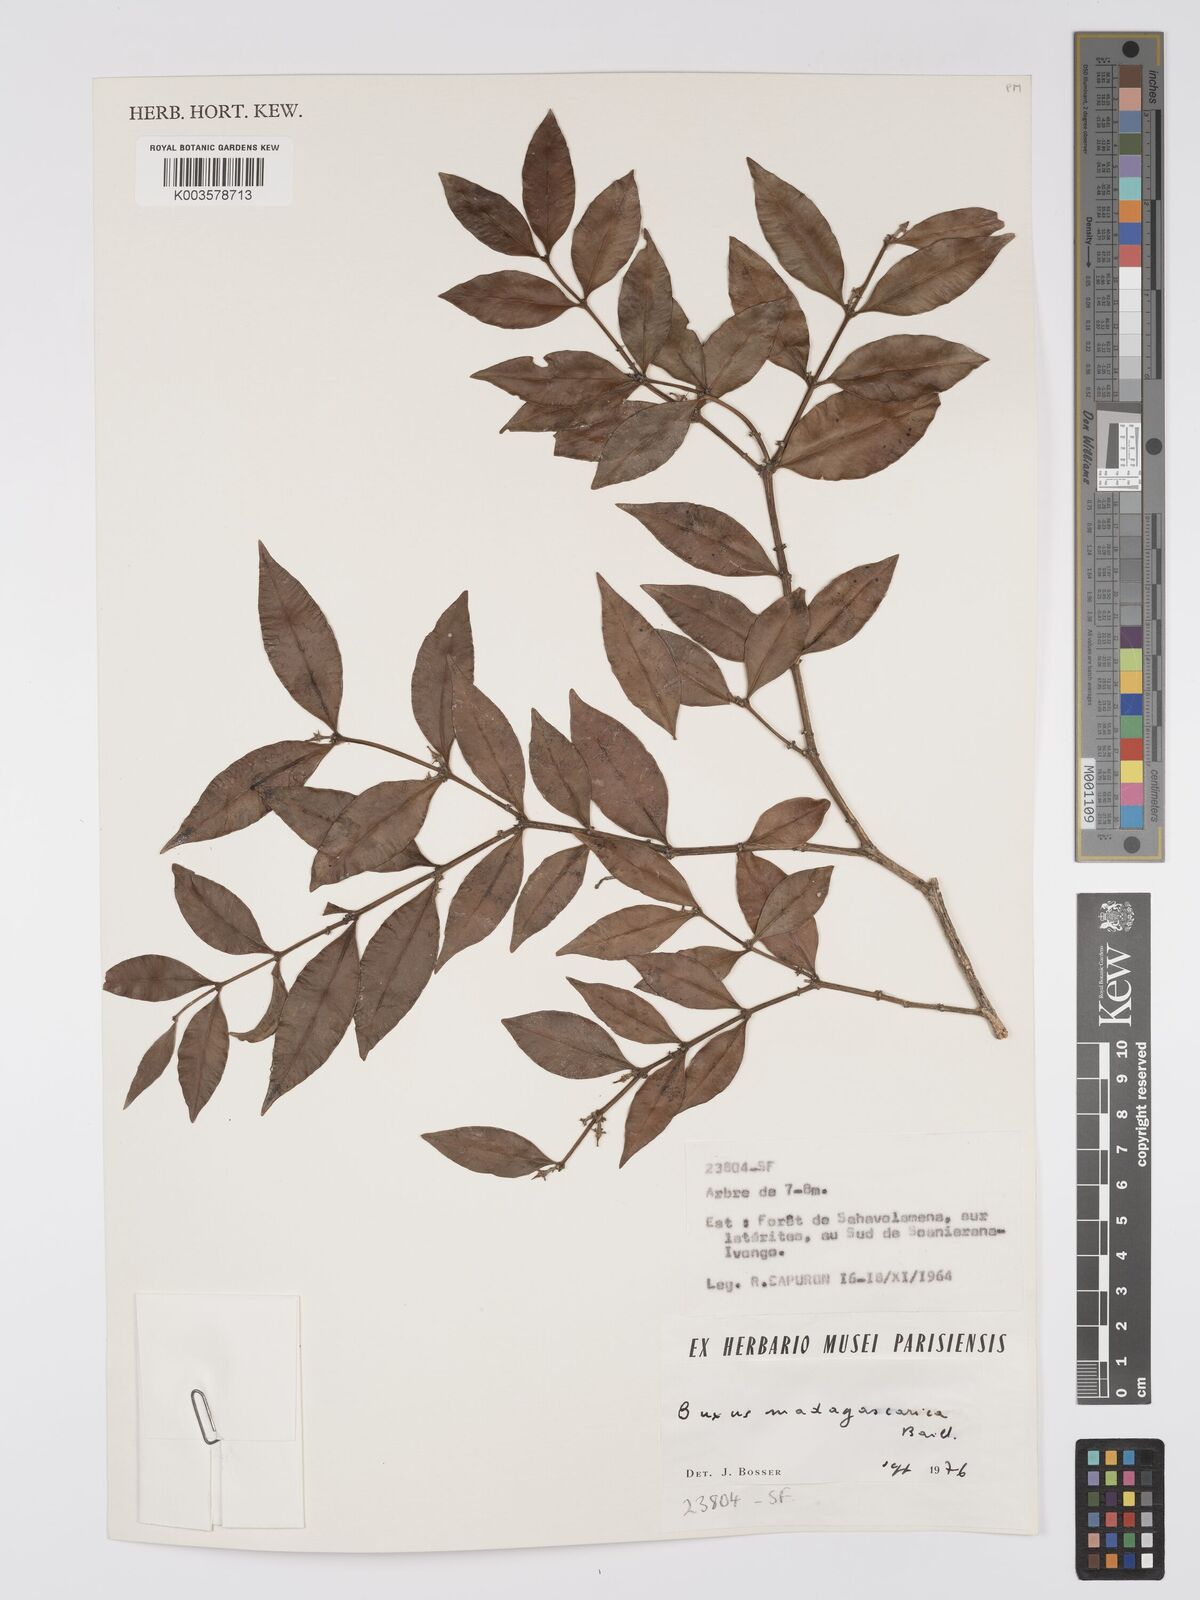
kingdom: Plantae
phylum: Tracheophyta
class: Magnoliopsida
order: Buxales
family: Buxaceae
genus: Buxus
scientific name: Buxus madagascarica
